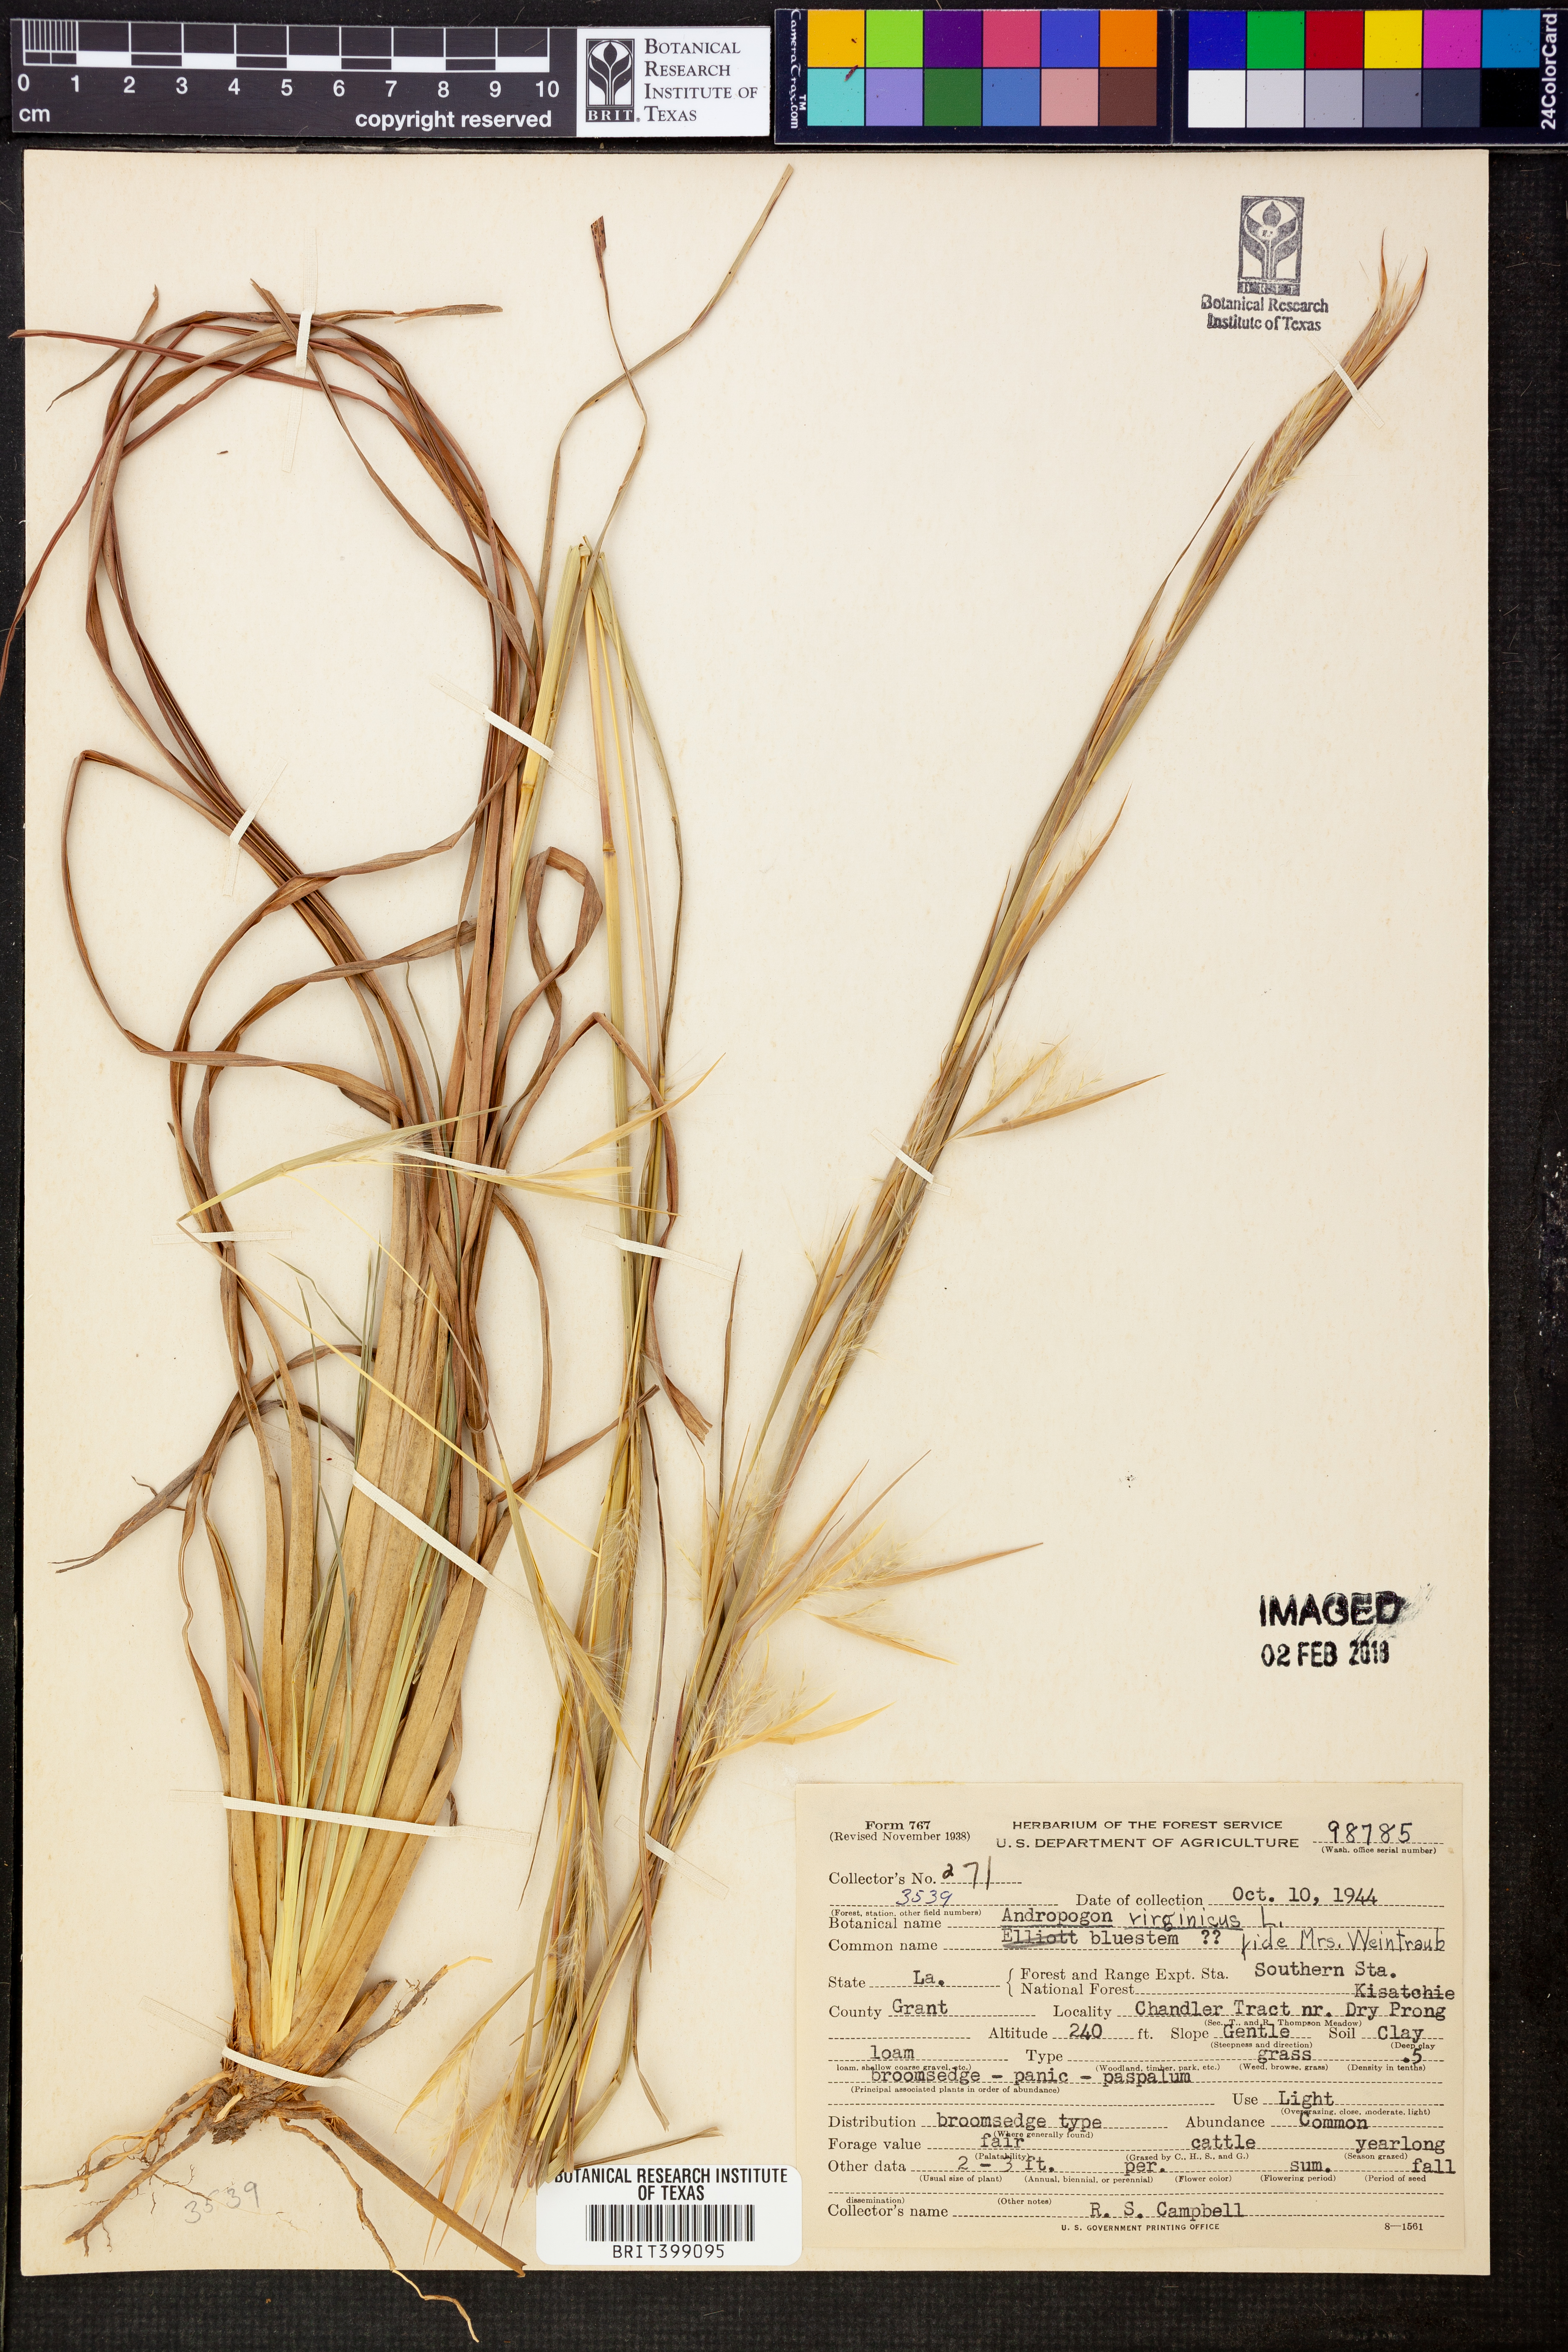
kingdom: Plantae
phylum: Tracheophyta
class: Liliopsida
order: Poales
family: Poaceae
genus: Andropogon
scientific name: Andropogon virginicus
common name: Broomsedge bluestem
